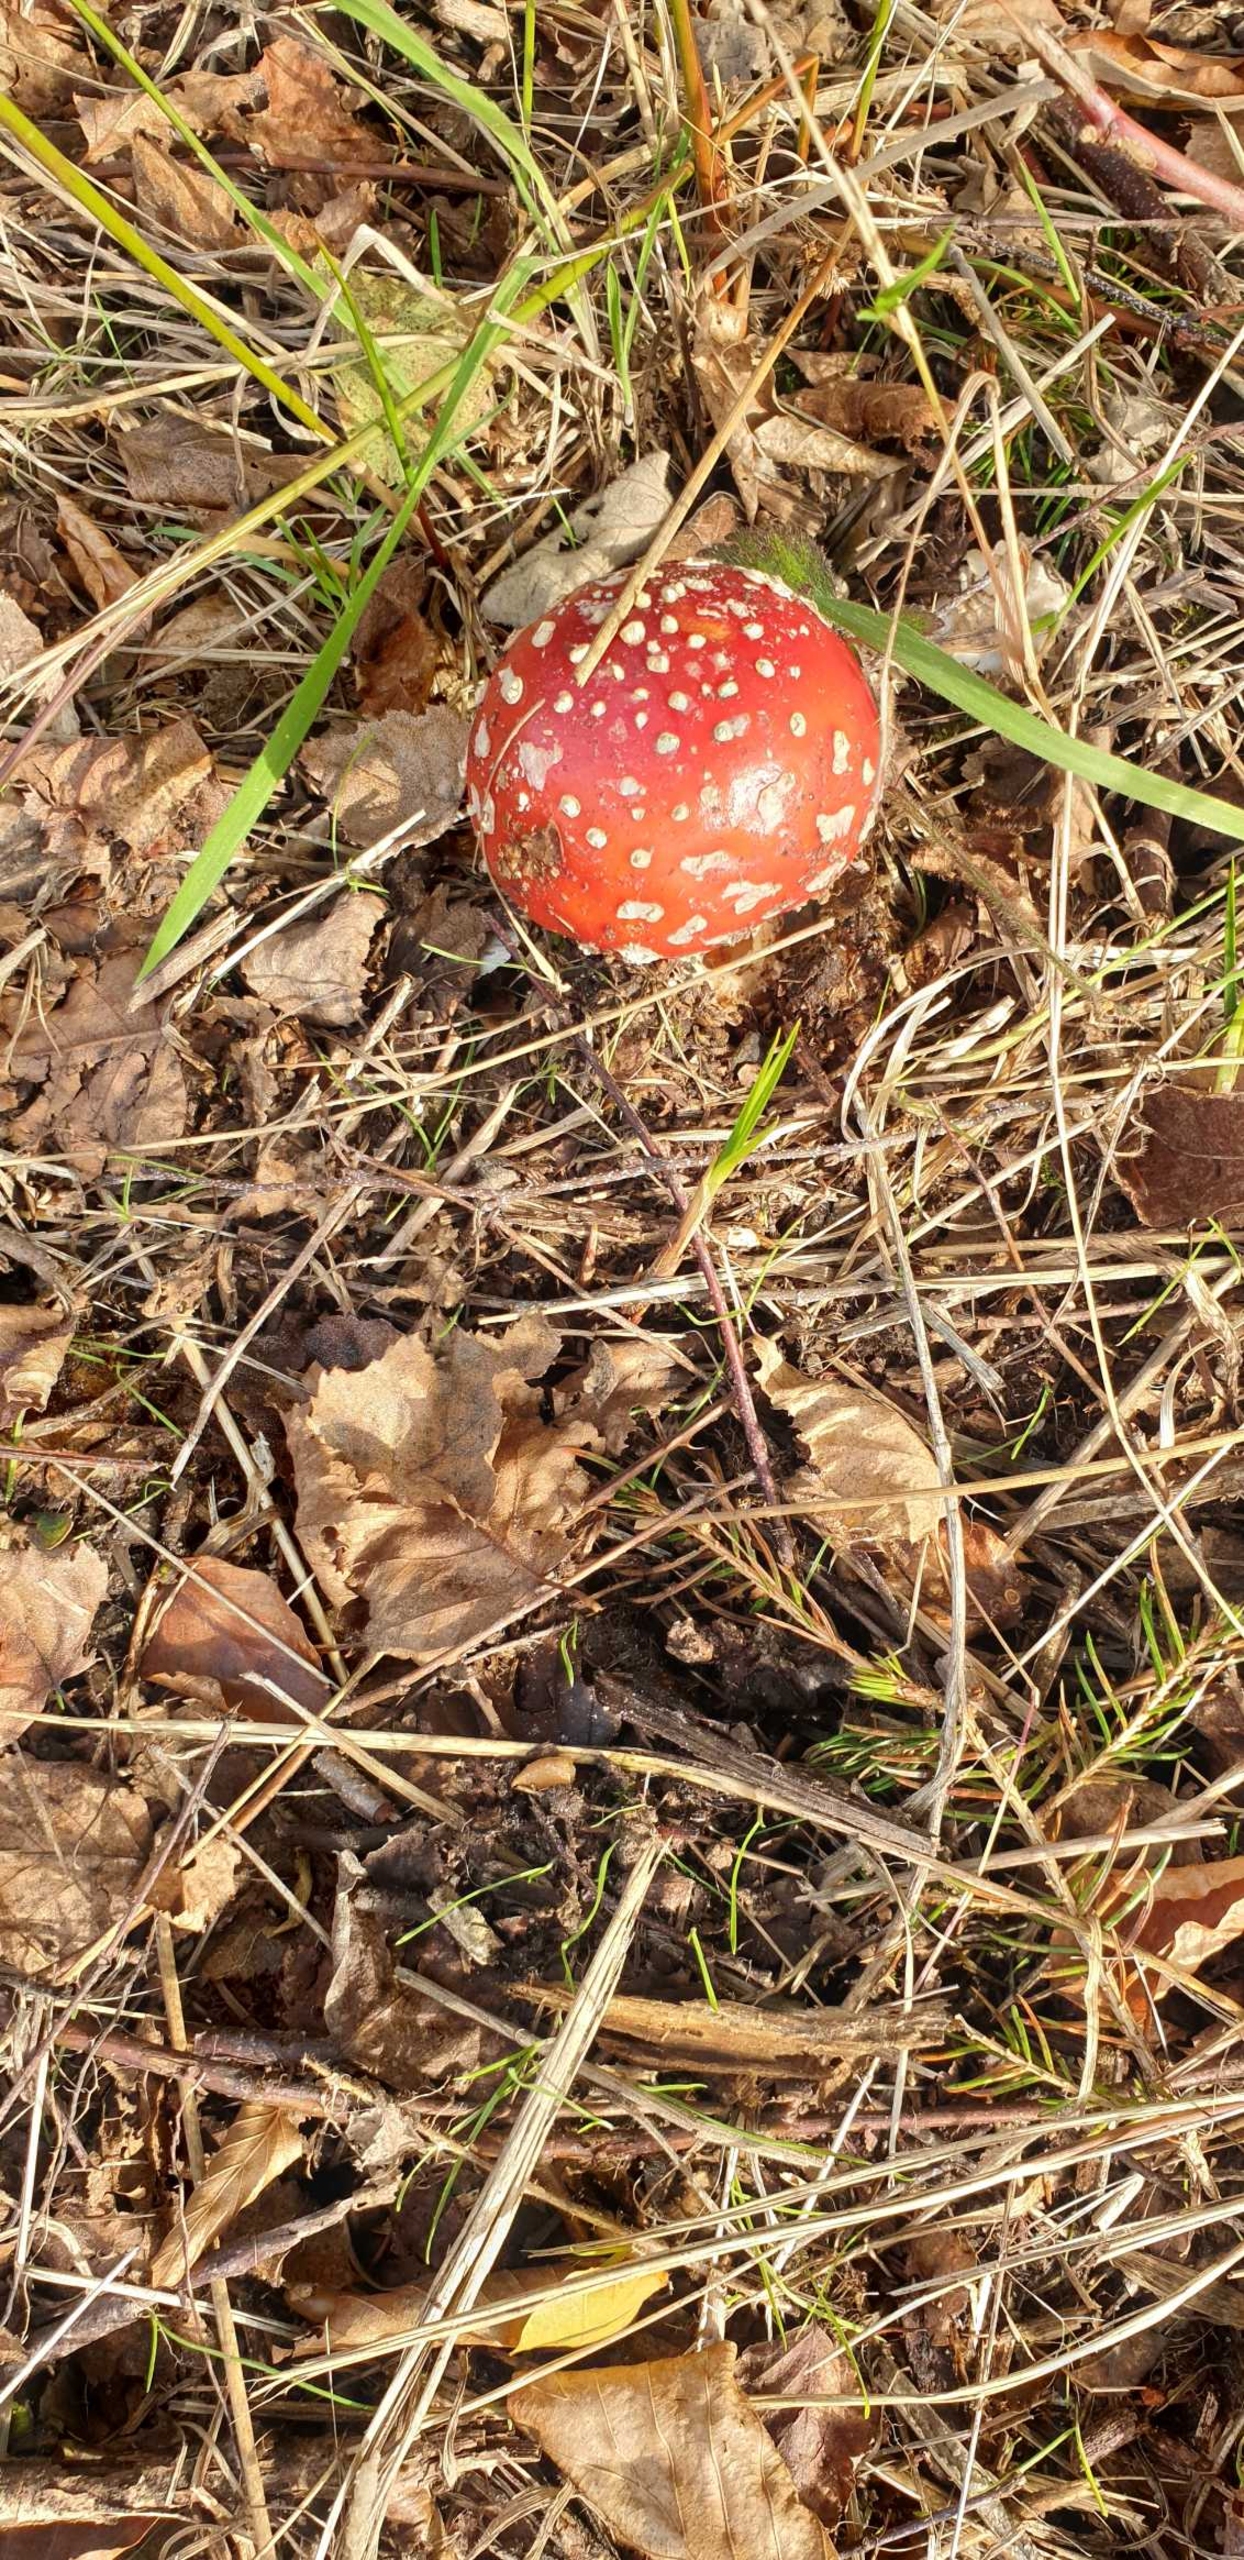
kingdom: Fungi
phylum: Basidiomycota
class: Agaricomycetes
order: Agaricales
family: Amanitaceae
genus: Amanita
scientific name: Amanita muscaria
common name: Rød fluesvamp
